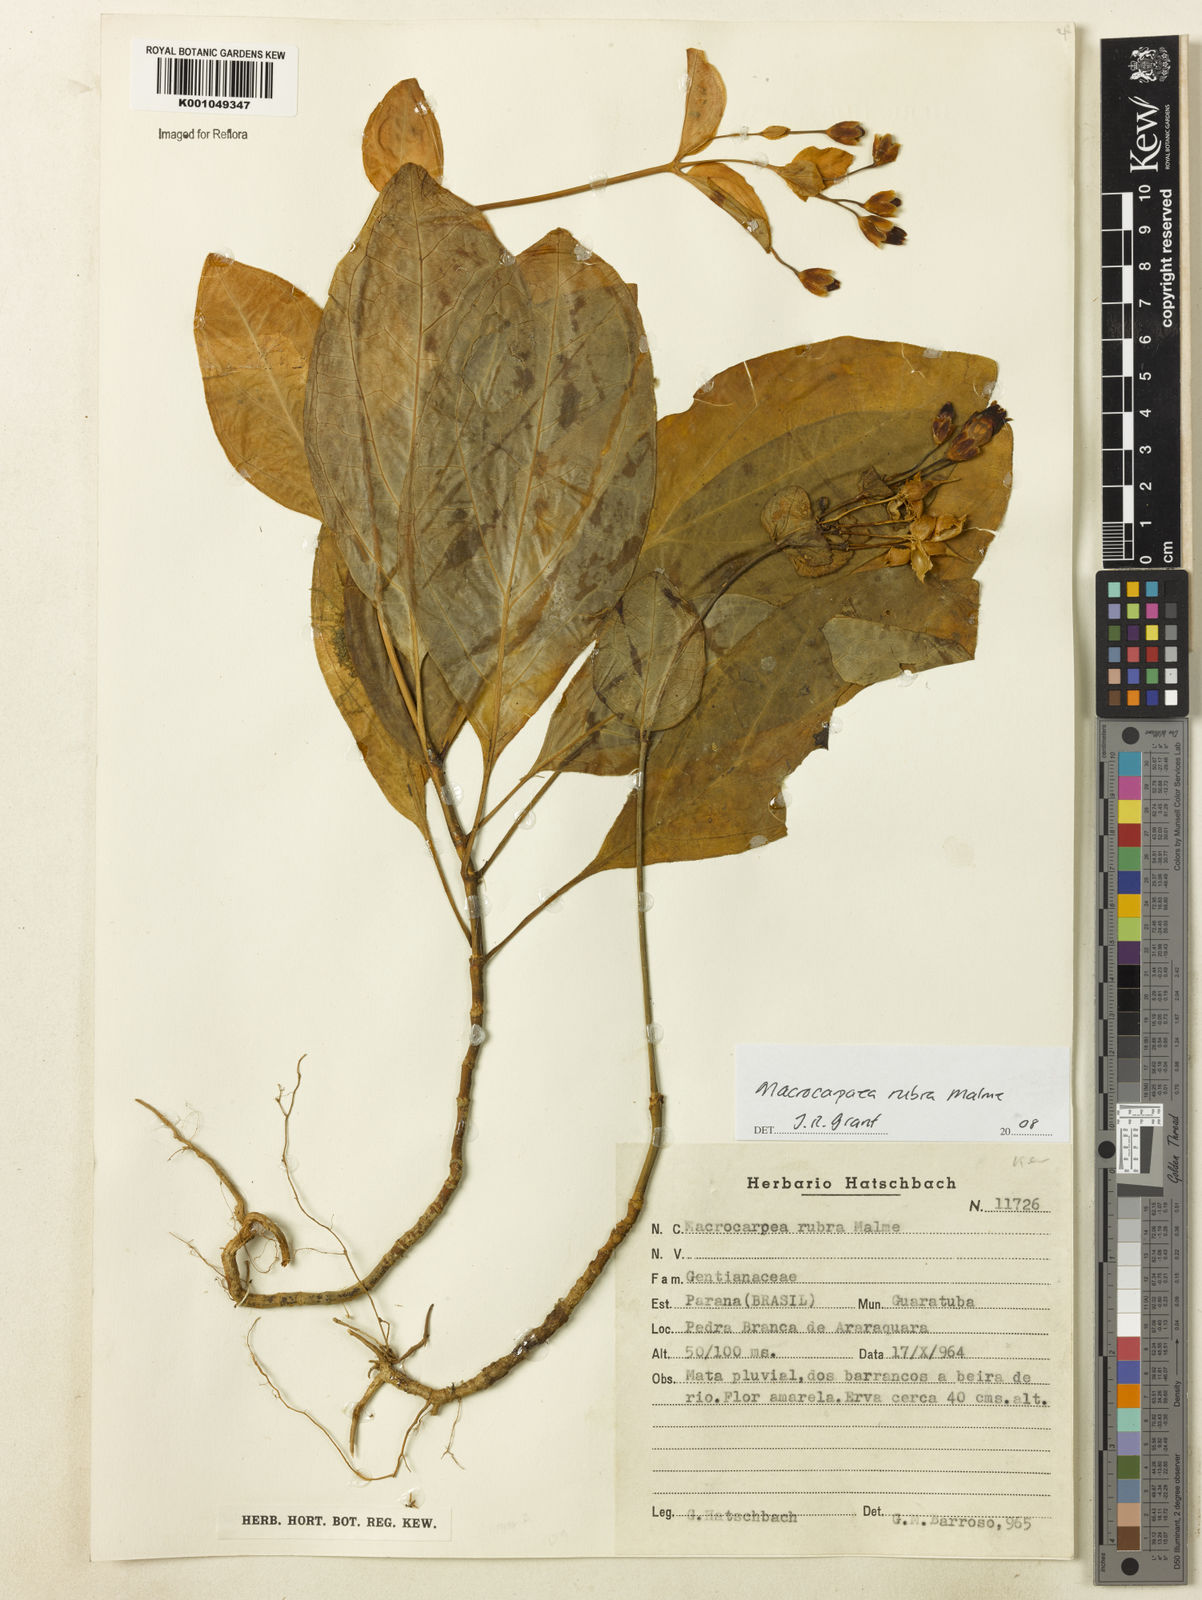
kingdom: Plantae
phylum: Tracheophyta
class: Magnoliopsida
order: Gentianales
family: Gentianaceae
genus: Macrocarpaea
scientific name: Macrocarpaea rubra
